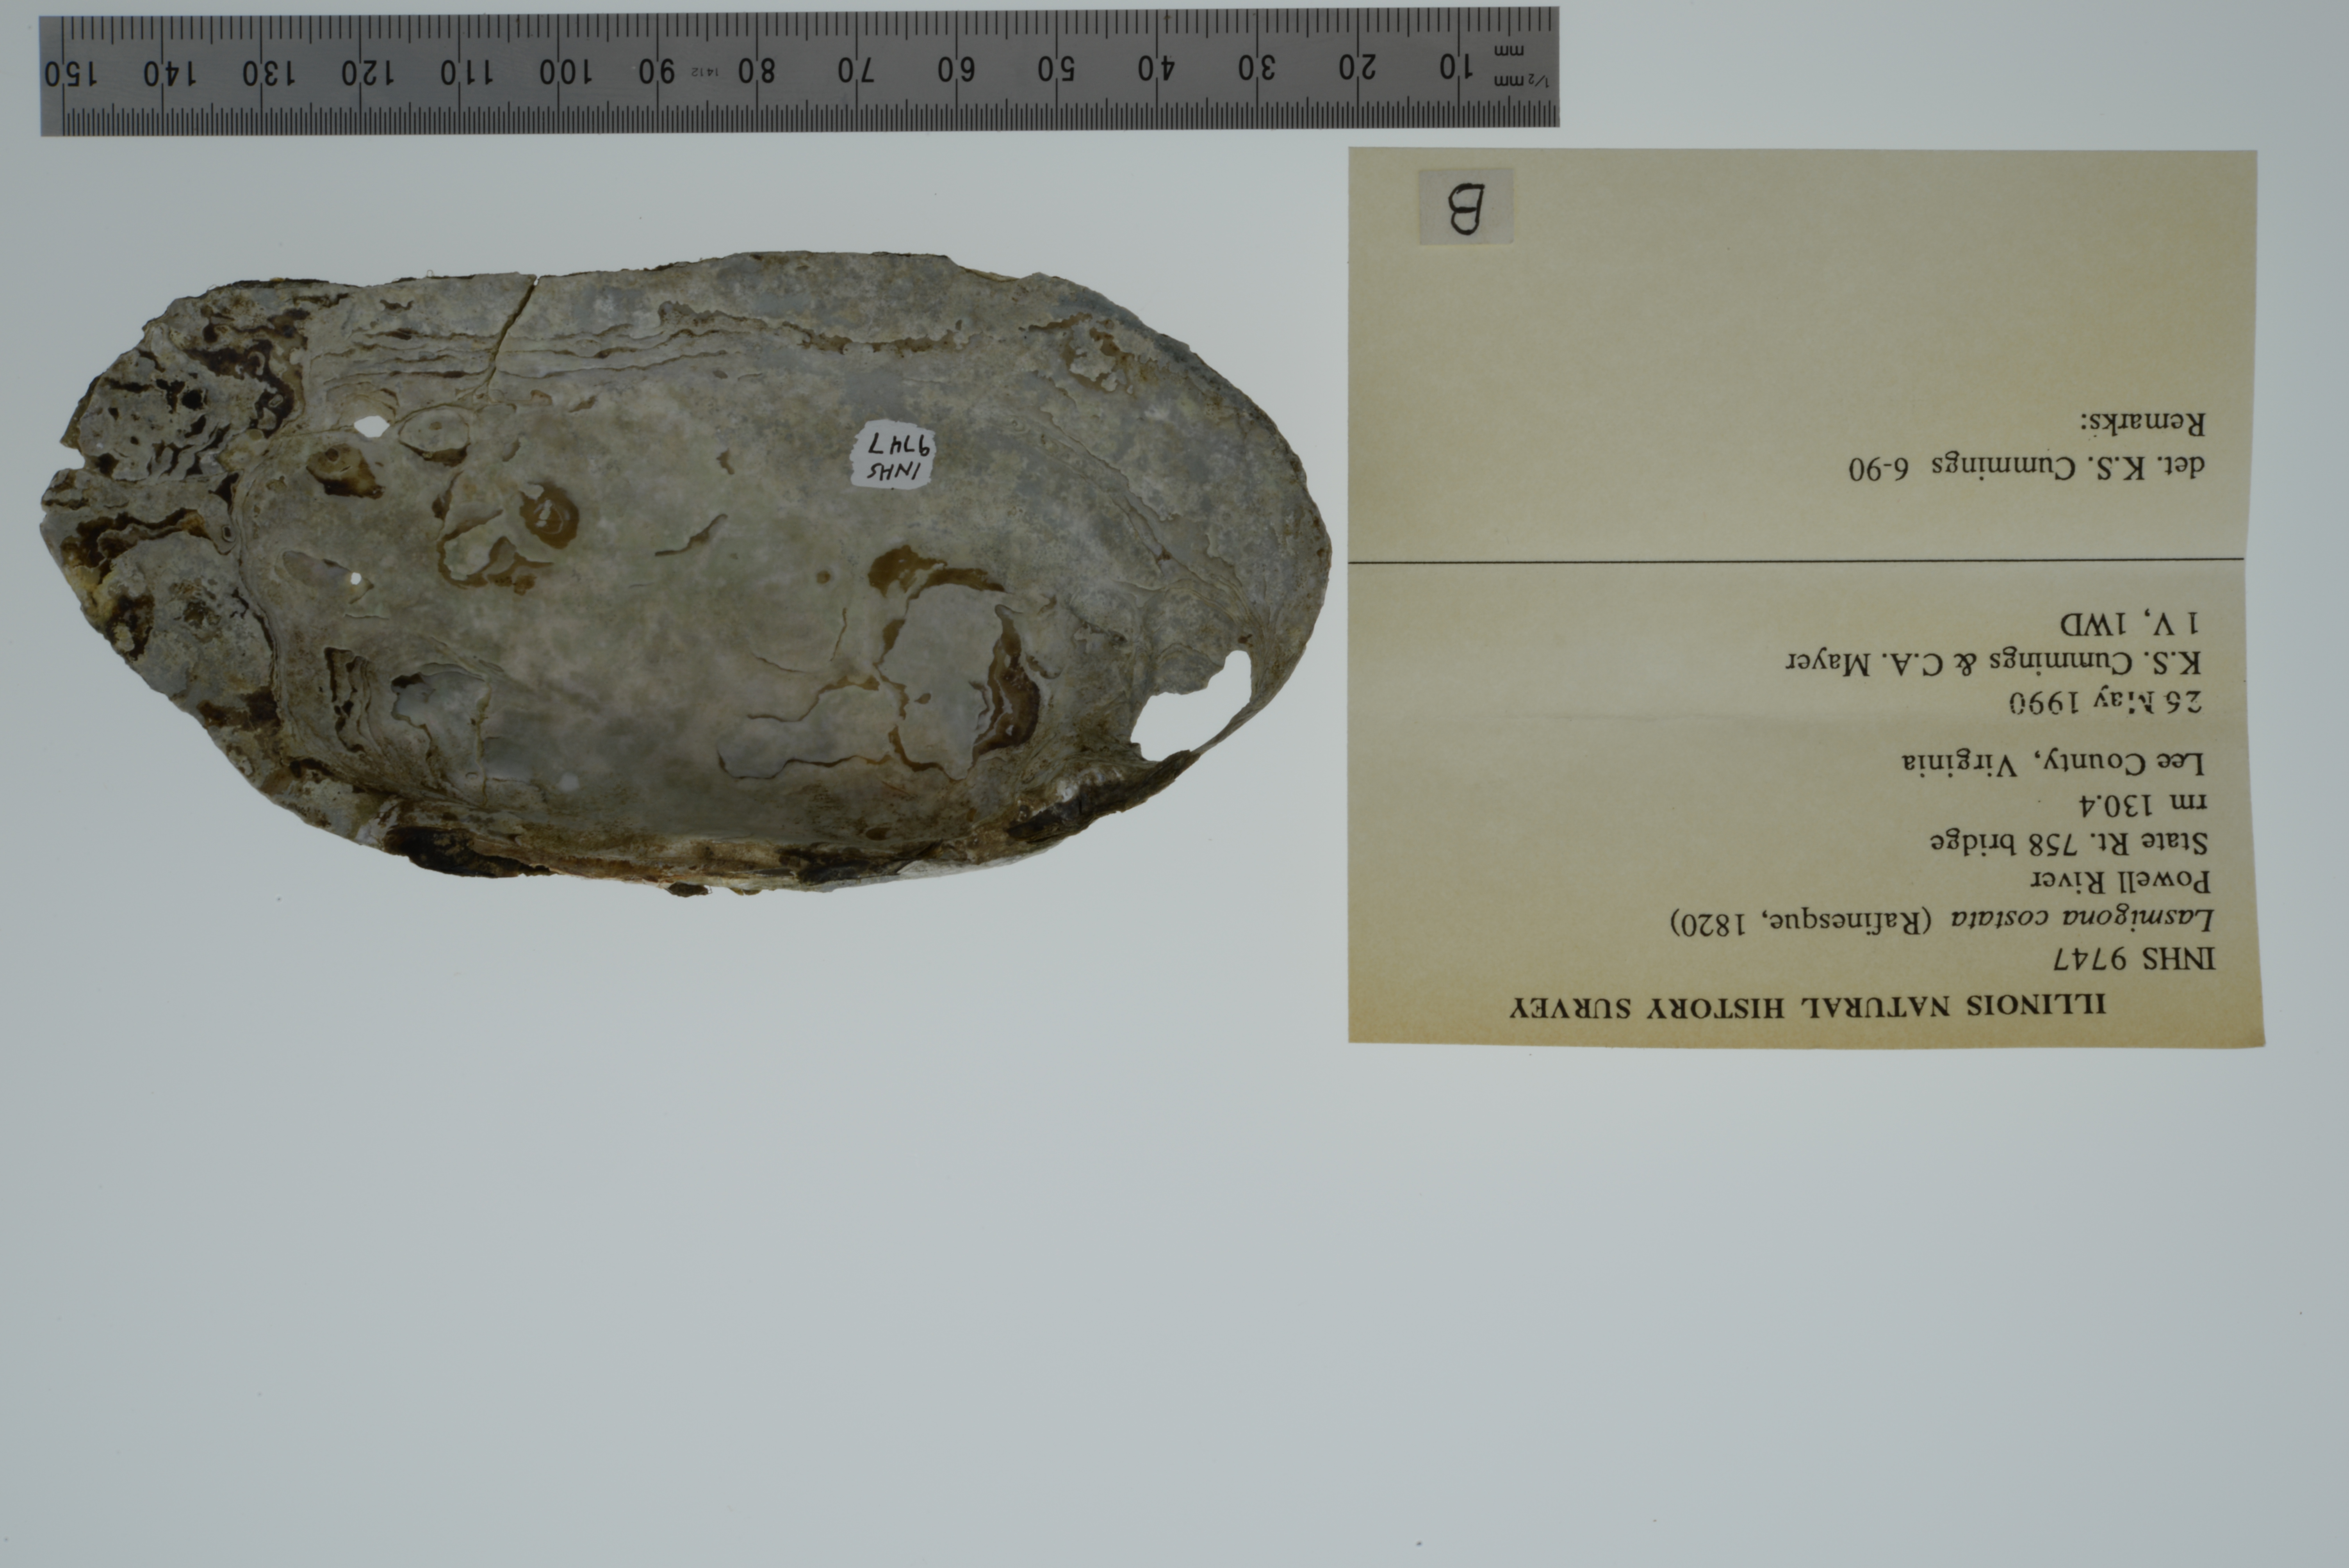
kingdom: Animalia
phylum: Mollusca
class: Bivalvia
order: Unionida
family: Unionidae
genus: Lasmigona
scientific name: Lasmigona costata
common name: Flutedshell
